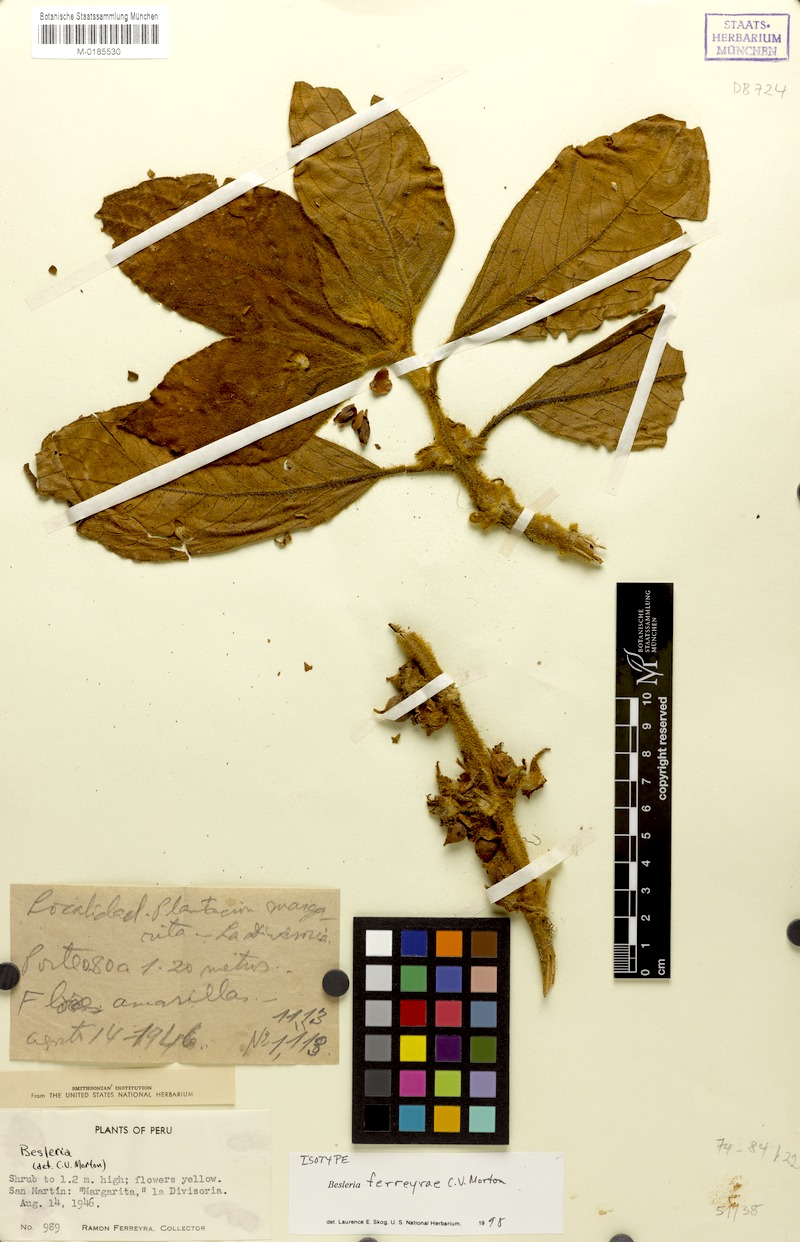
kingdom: Plantae
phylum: Tracheophyta
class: Magnoliopsida
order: Lamiales
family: Gesneriaceae
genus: Besleria
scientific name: Besleria ferreyrae
